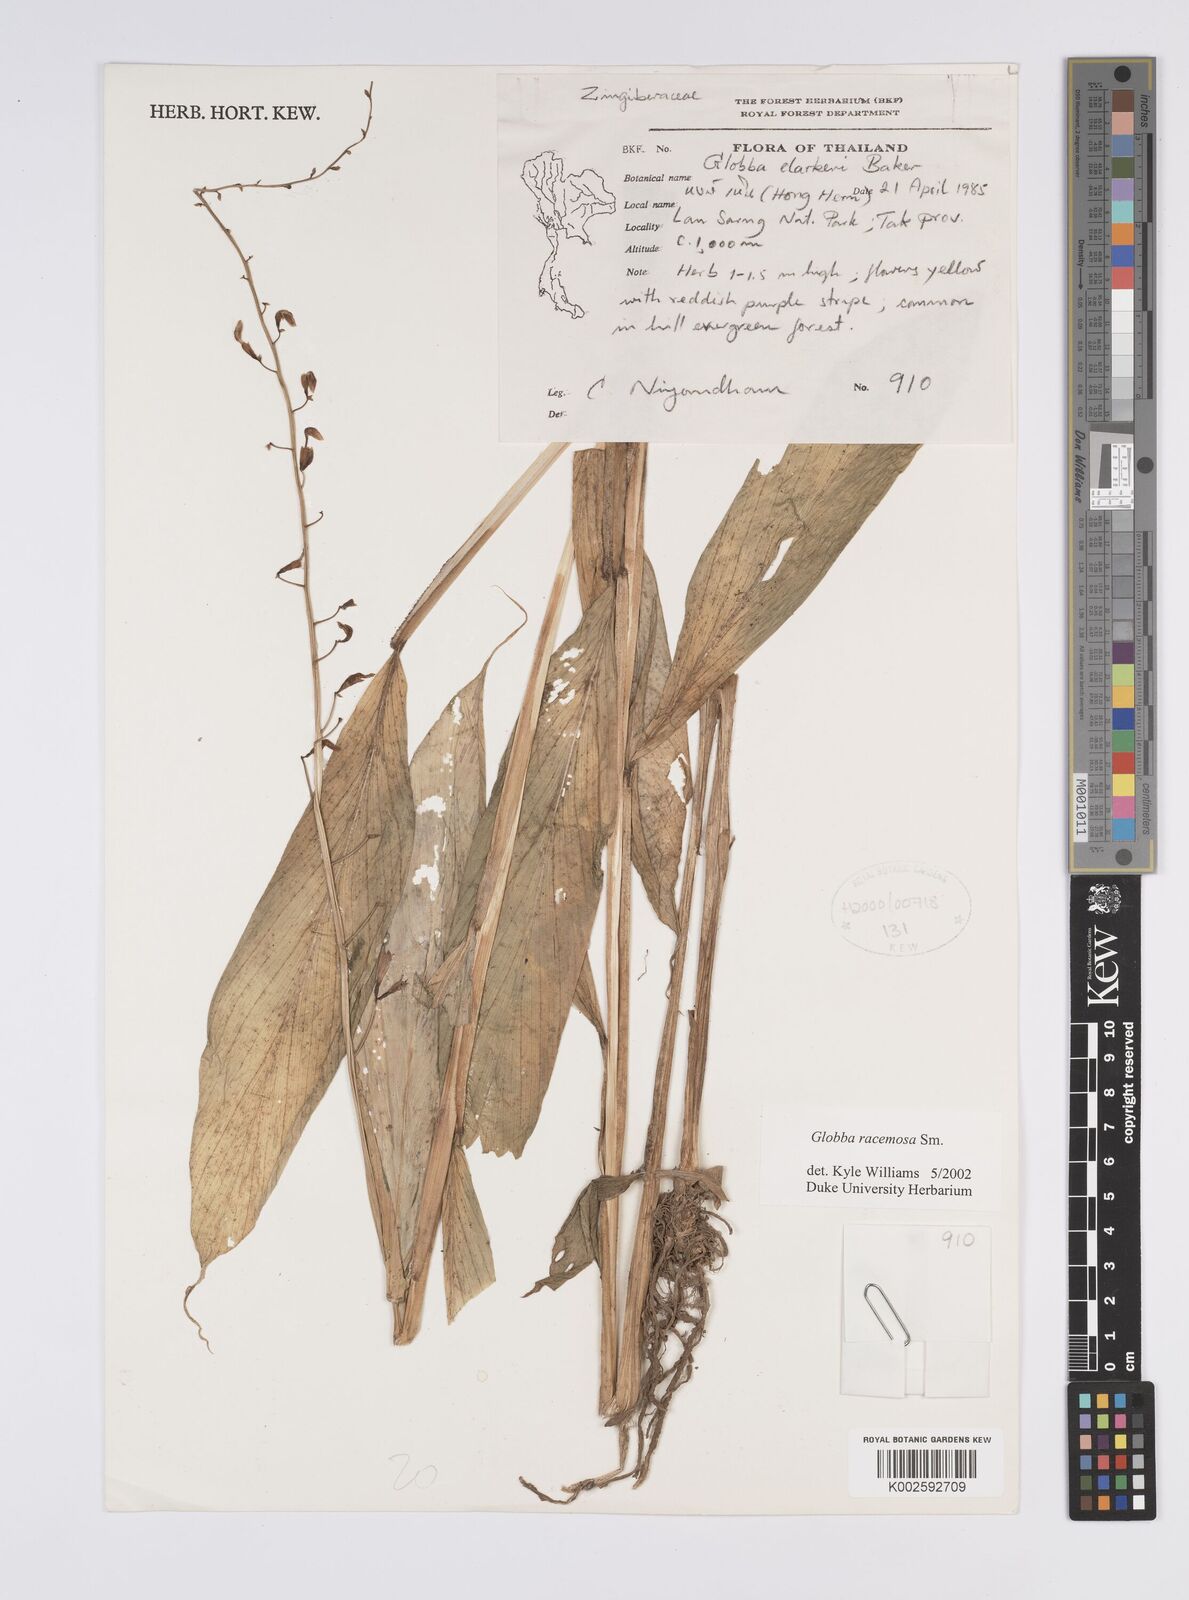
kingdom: Plantae
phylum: Tracheophyta
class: Liliopsida
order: Zingiberales
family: Zingiberaceae
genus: Globba
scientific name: Globba racemosa
